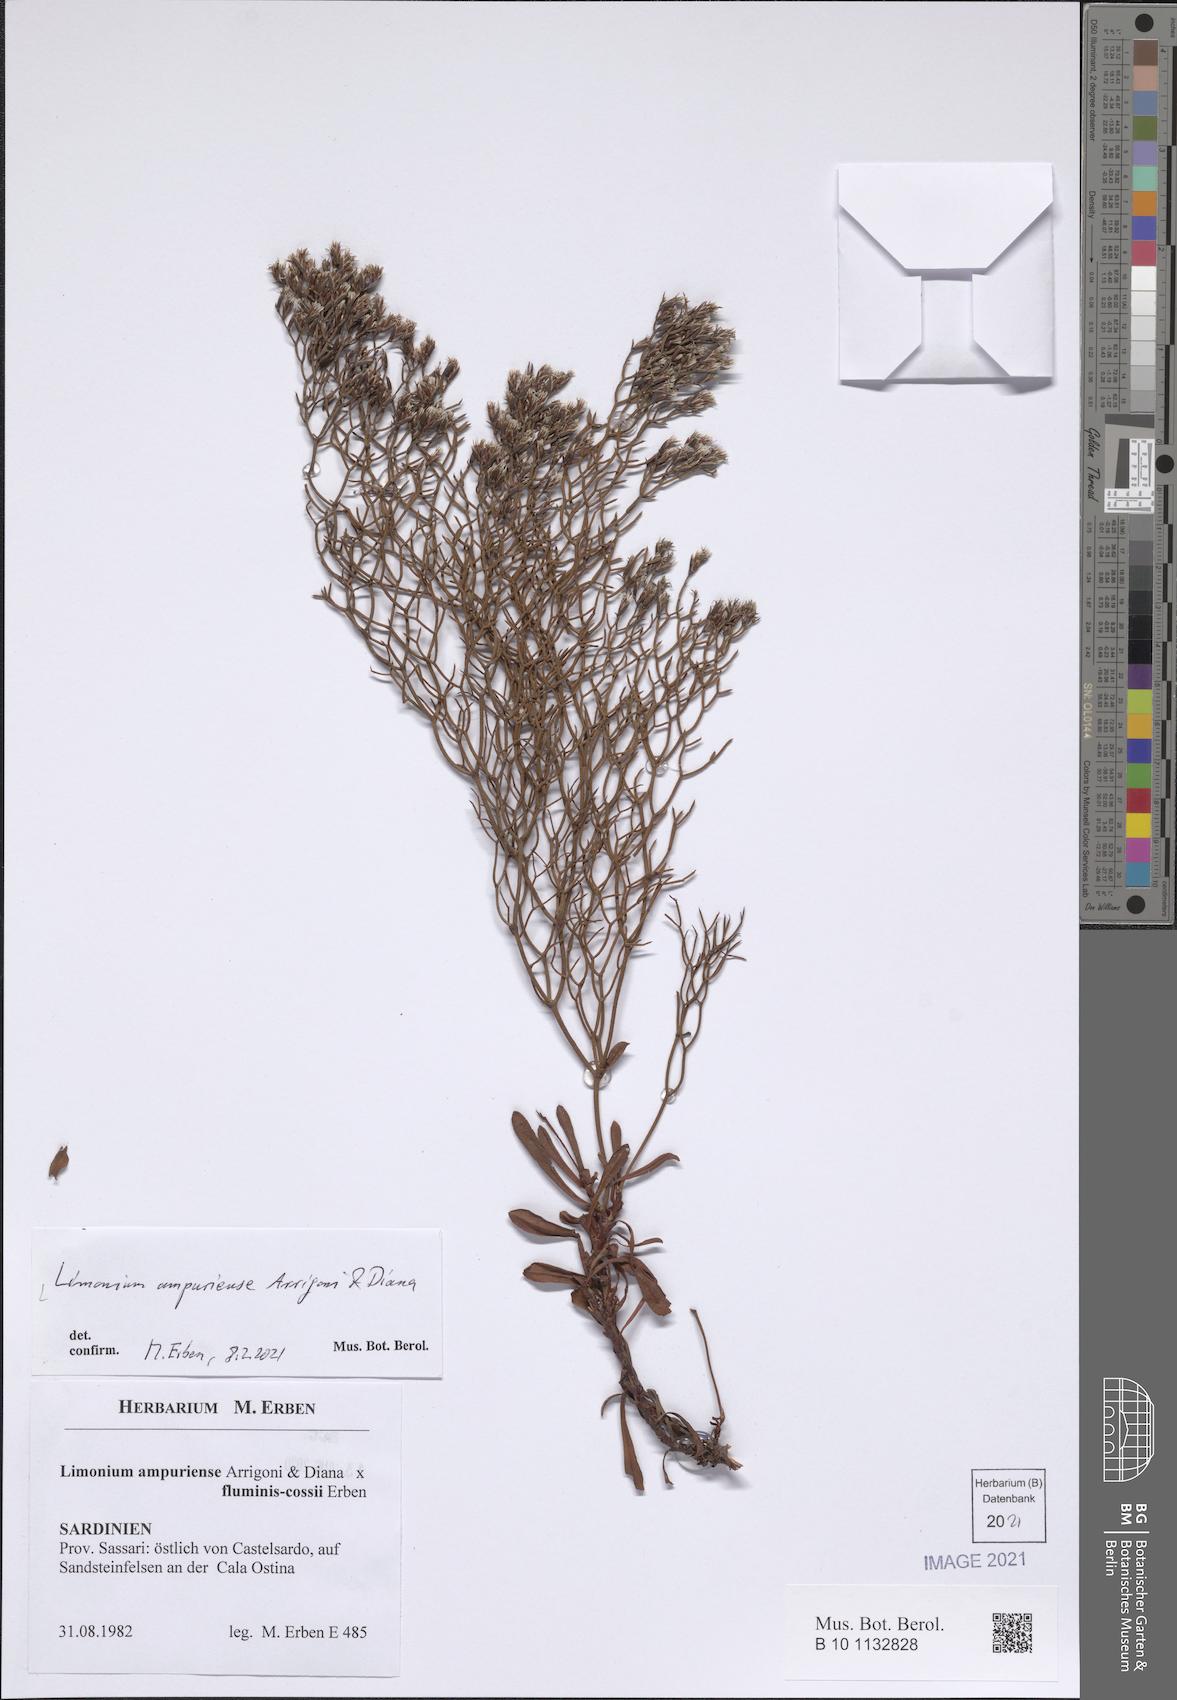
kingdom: Plantae
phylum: Tracheophyta
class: Magnoliopsida
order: Caryophyllales
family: Plumbaginaceae
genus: Limonium
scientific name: Limonium dolcheri
